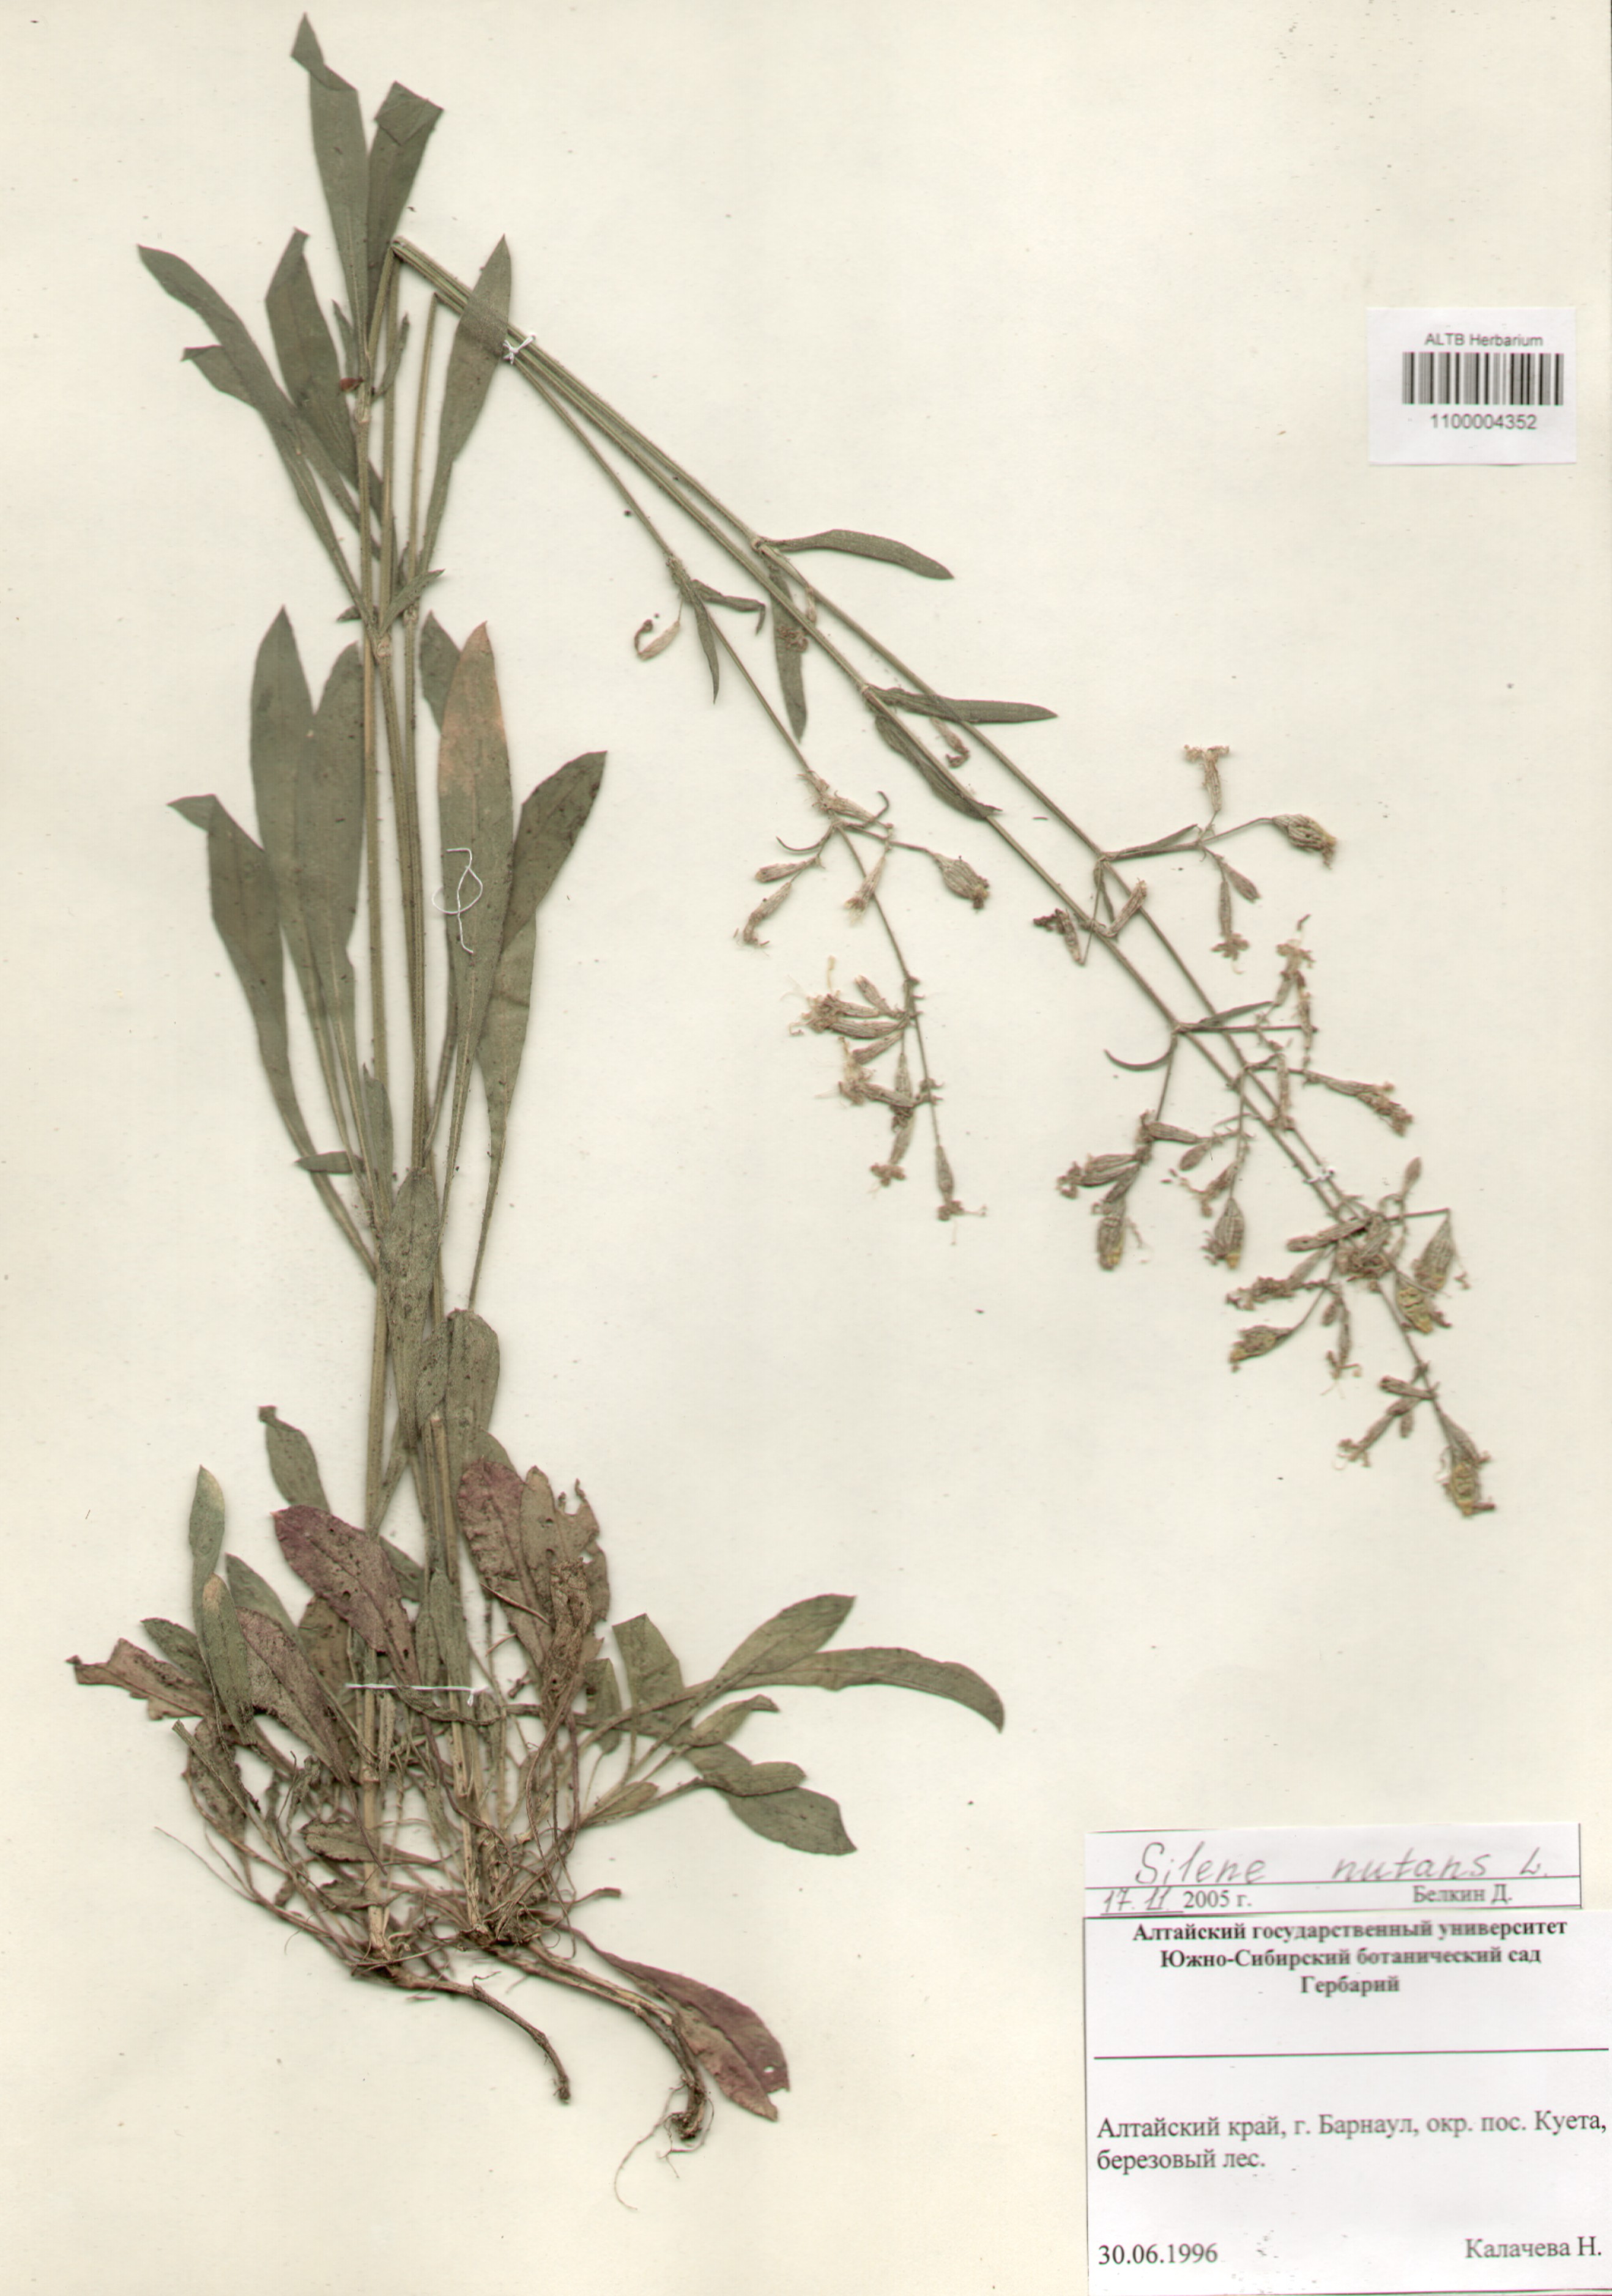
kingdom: Plantae
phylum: Tracheophyta
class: Magnoliopsida
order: Caryophyllales
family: Caryophyllaceae
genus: Silene
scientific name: Silene nutans
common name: Nottingham catchfly
